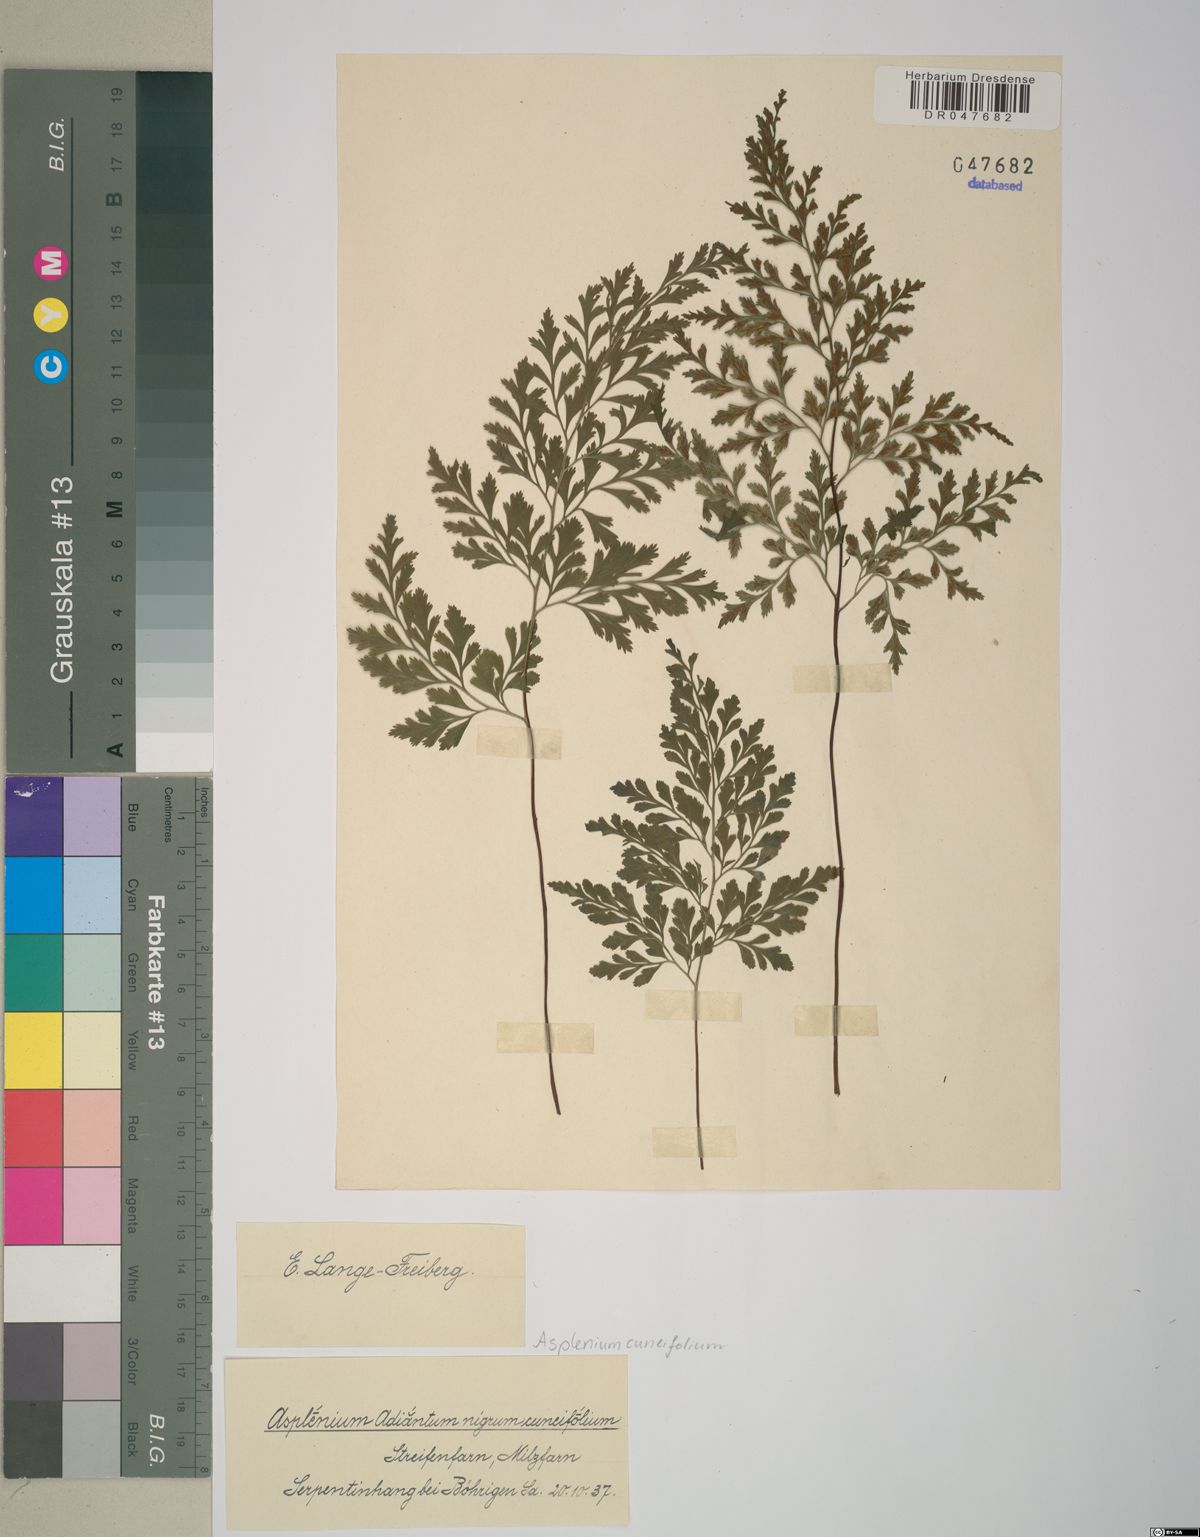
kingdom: Plantae
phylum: Tracheophyta
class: Polypodiopsida
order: Polypodiales
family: Aspleniaceae
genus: Asplenium
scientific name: Asplenium cuneifolium
